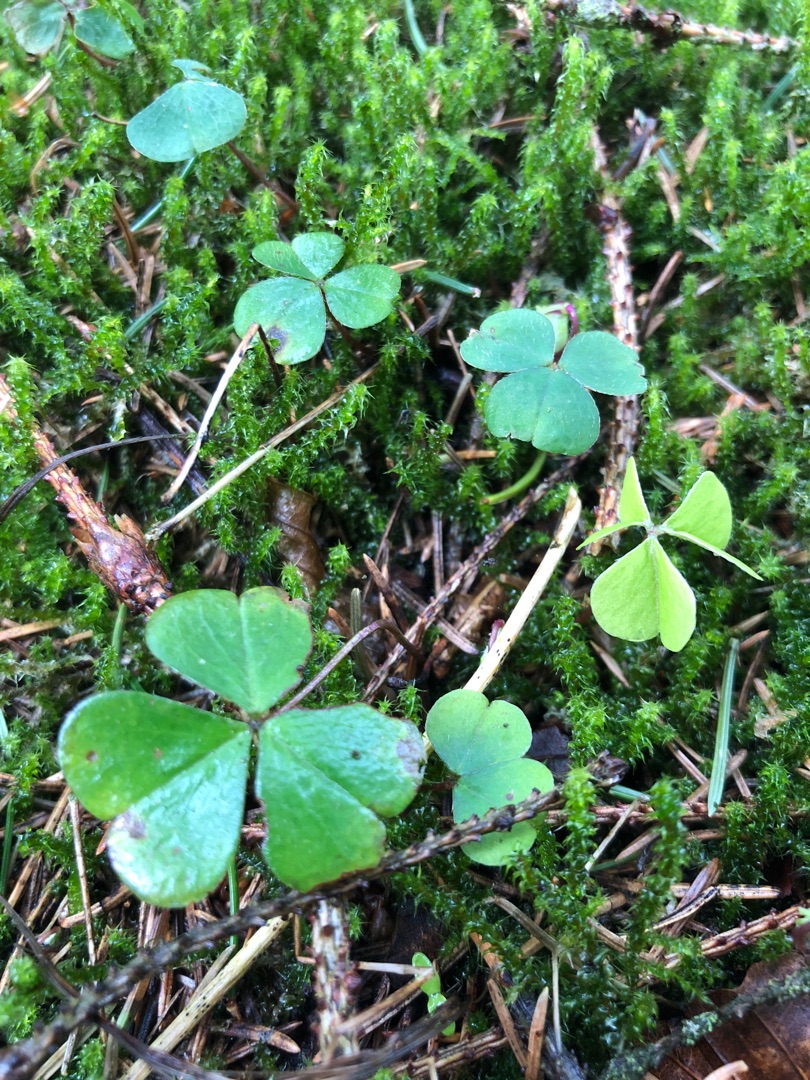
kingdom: Plantae
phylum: Tracheophyta
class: Magnoliopsida
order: Oxalidales
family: Oxalidaceae
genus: Oxalis
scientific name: Oxalis acetosella
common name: Skovsyre
